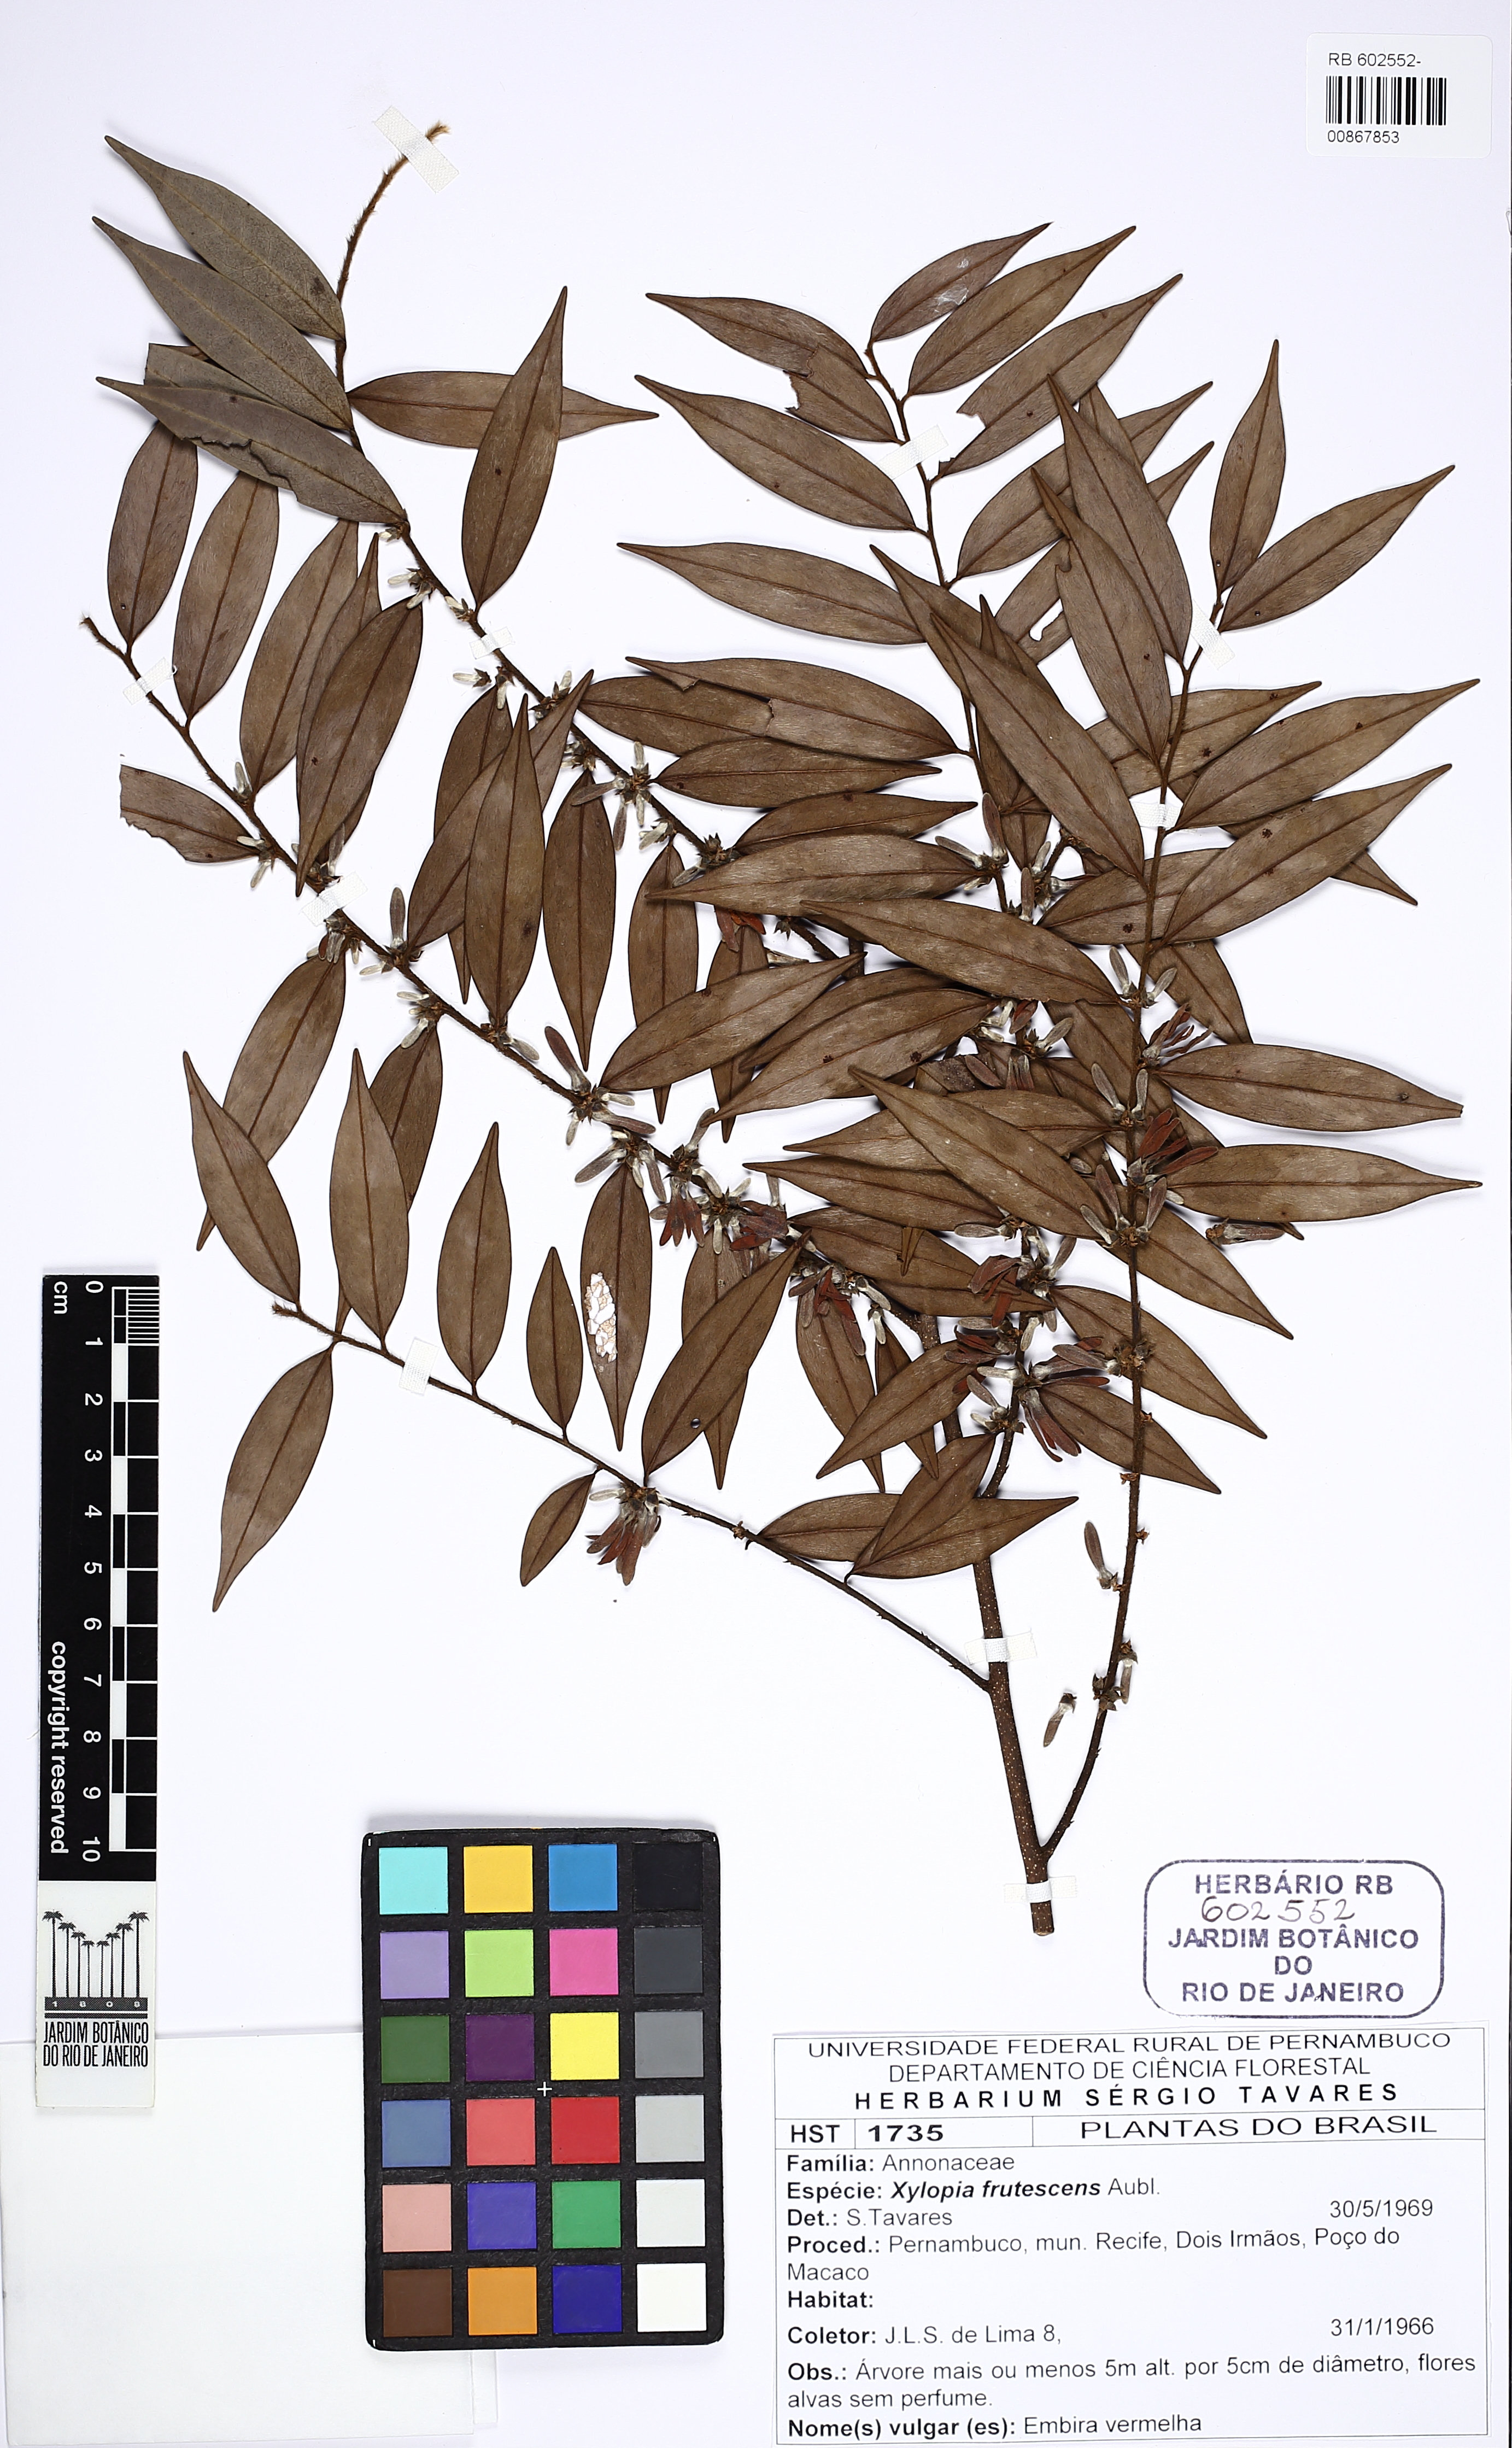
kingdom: Plantae
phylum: Tracheophyta
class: Magnoliopsida
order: Magnoliales
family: Annonaceae
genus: Xylopia
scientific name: Xylopia frutescens
